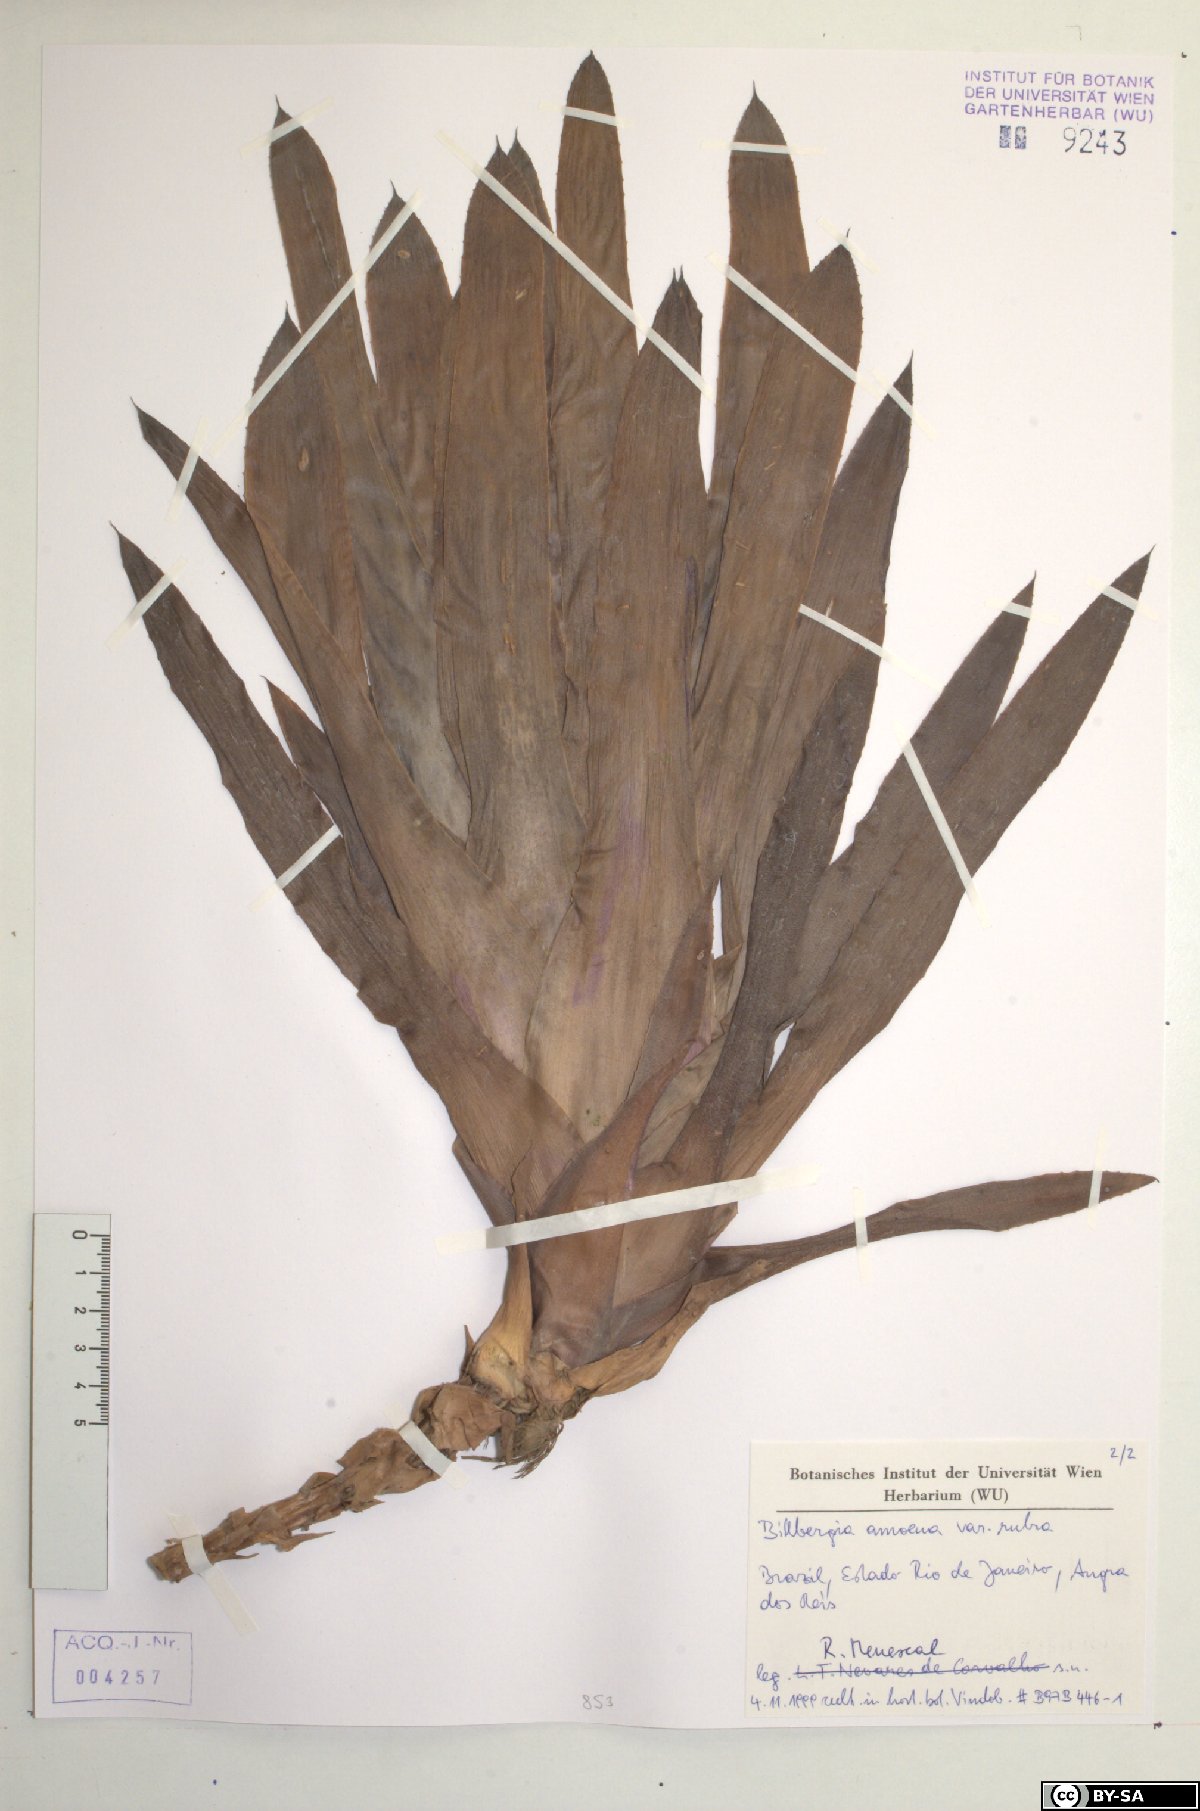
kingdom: Plantae
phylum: Tracheophyta
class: Liliopsida
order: Poales
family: Bromeliaceae
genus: Billbergia
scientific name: Billbergia amoena
